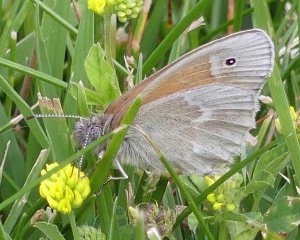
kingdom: Animalia
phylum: Arthropoda
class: Insecta
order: Lepidoptera
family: Nymphalidae
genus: Coenonympha
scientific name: Coenonympha tullia
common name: Large Heath
